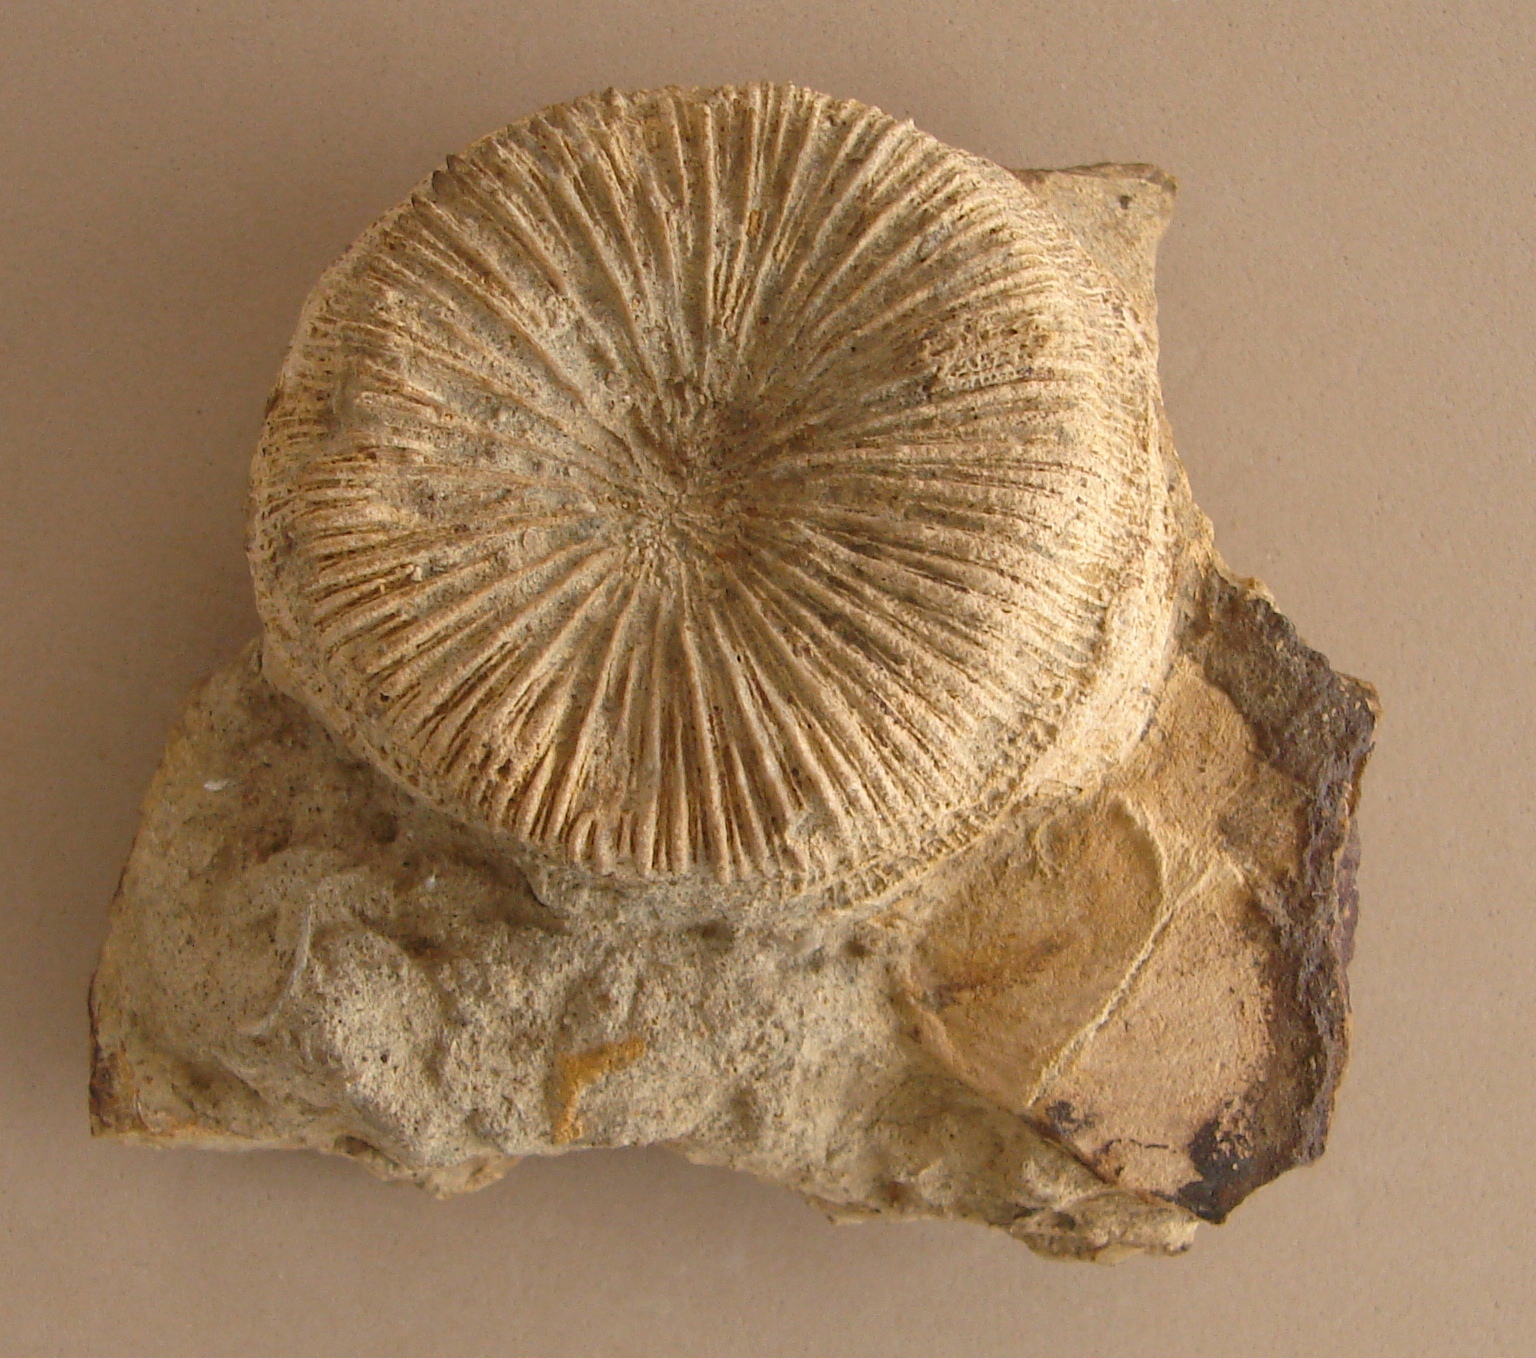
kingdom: Animalia
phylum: Cnidaria
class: Anthozoa
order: Scleractinia
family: Thecosmiliidae
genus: Montlivaltia
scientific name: Montlivaltia
